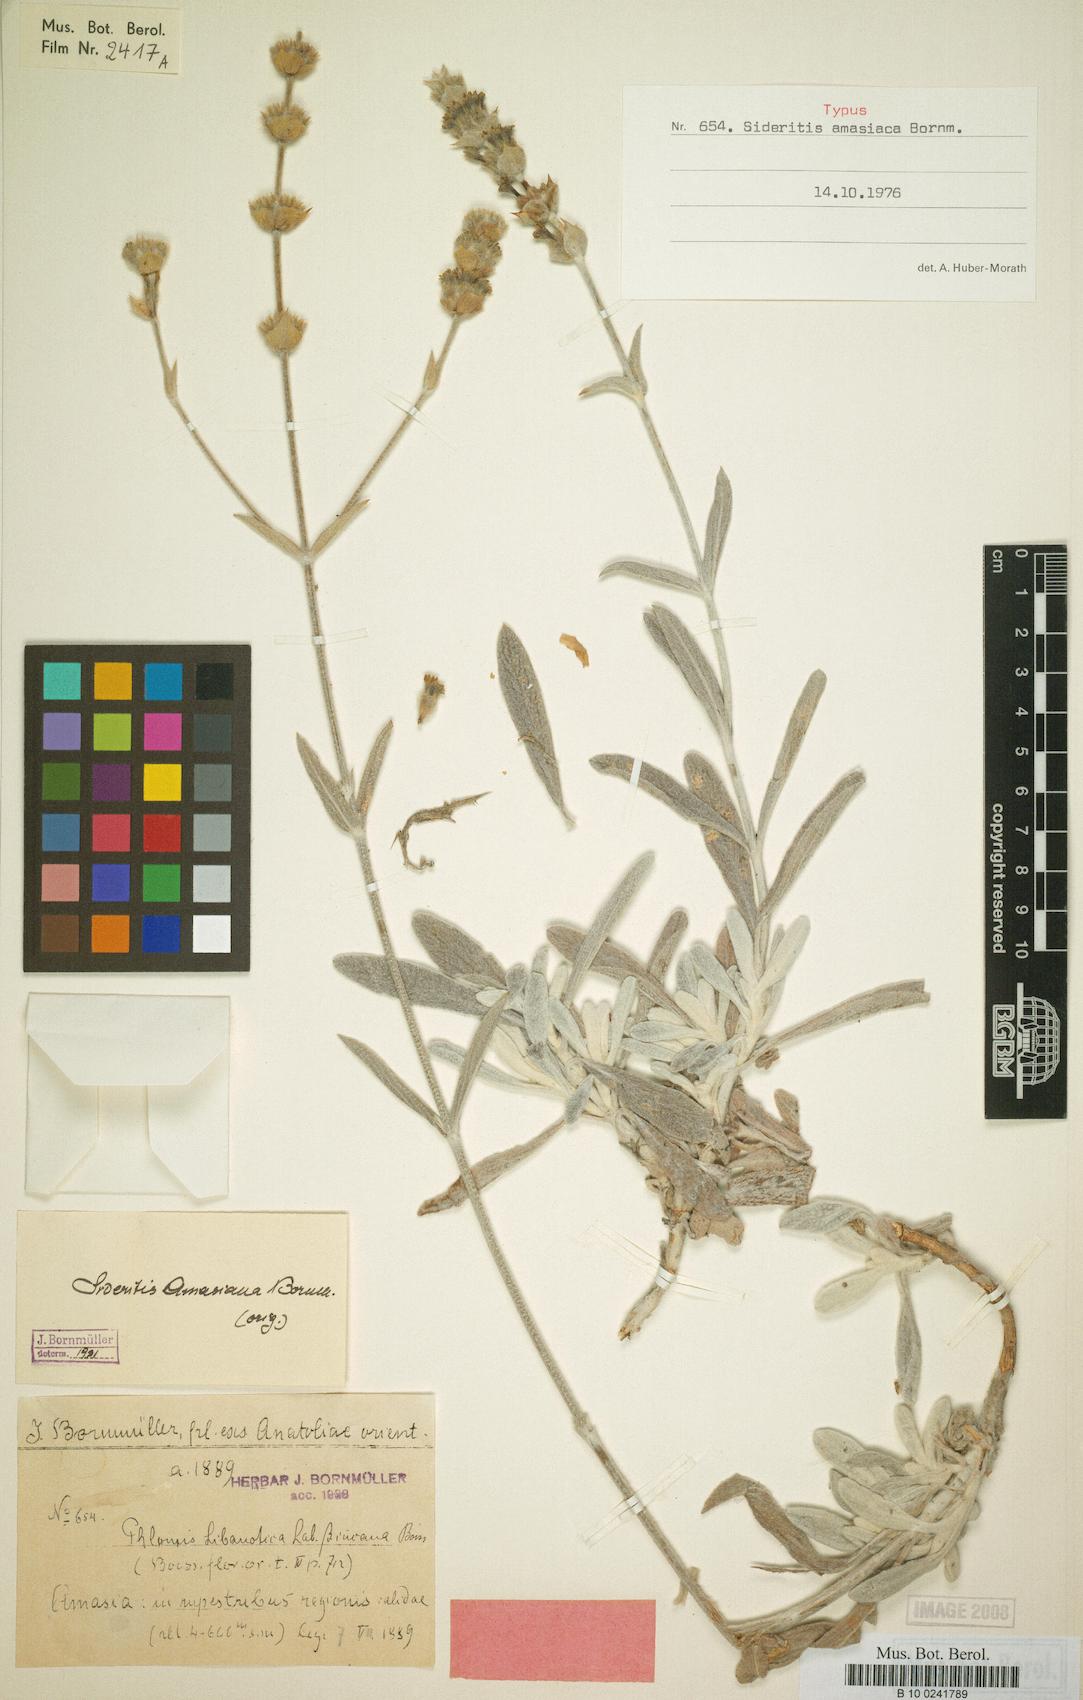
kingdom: Plantae
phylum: Tracheophyta
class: Magnoliopsida
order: Lamiales
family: Lamiaceae
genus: Sideritis
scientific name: Sideritis amasiaca
